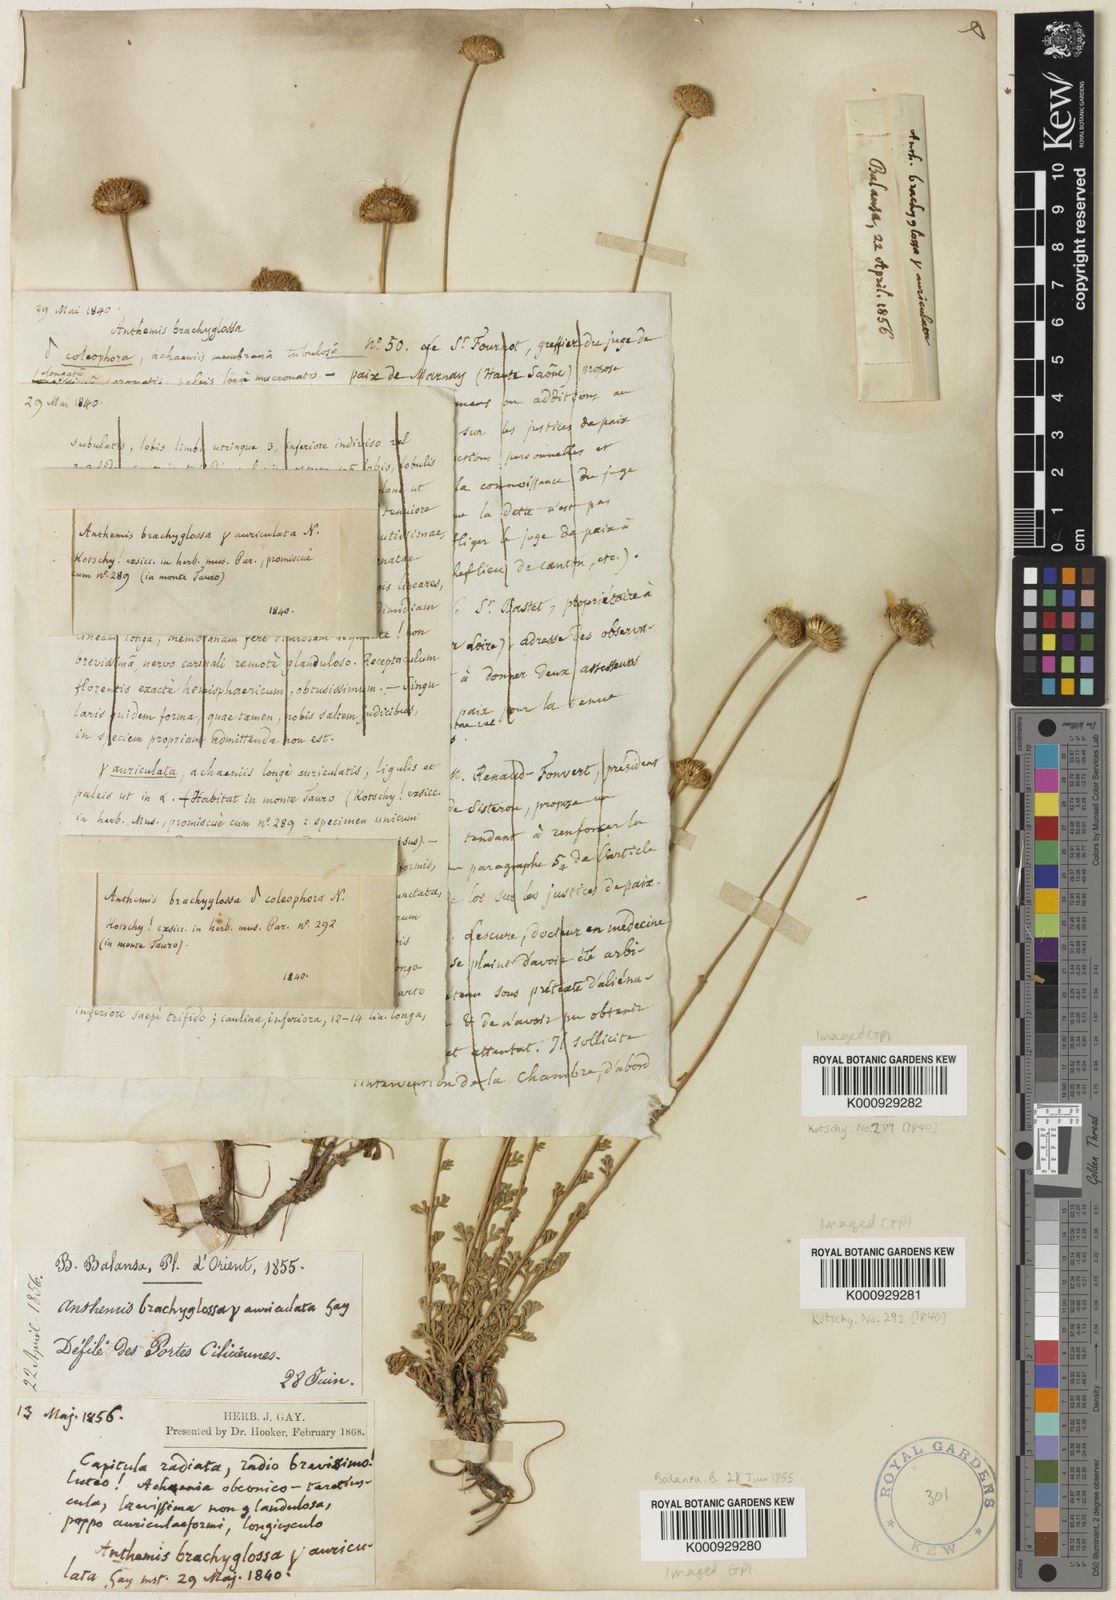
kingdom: Plantae
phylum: Tracheophyta
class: Magnoliopsida
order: Asterales
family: Asteraceae
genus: Anthemis
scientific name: Anthemis kotschyana
